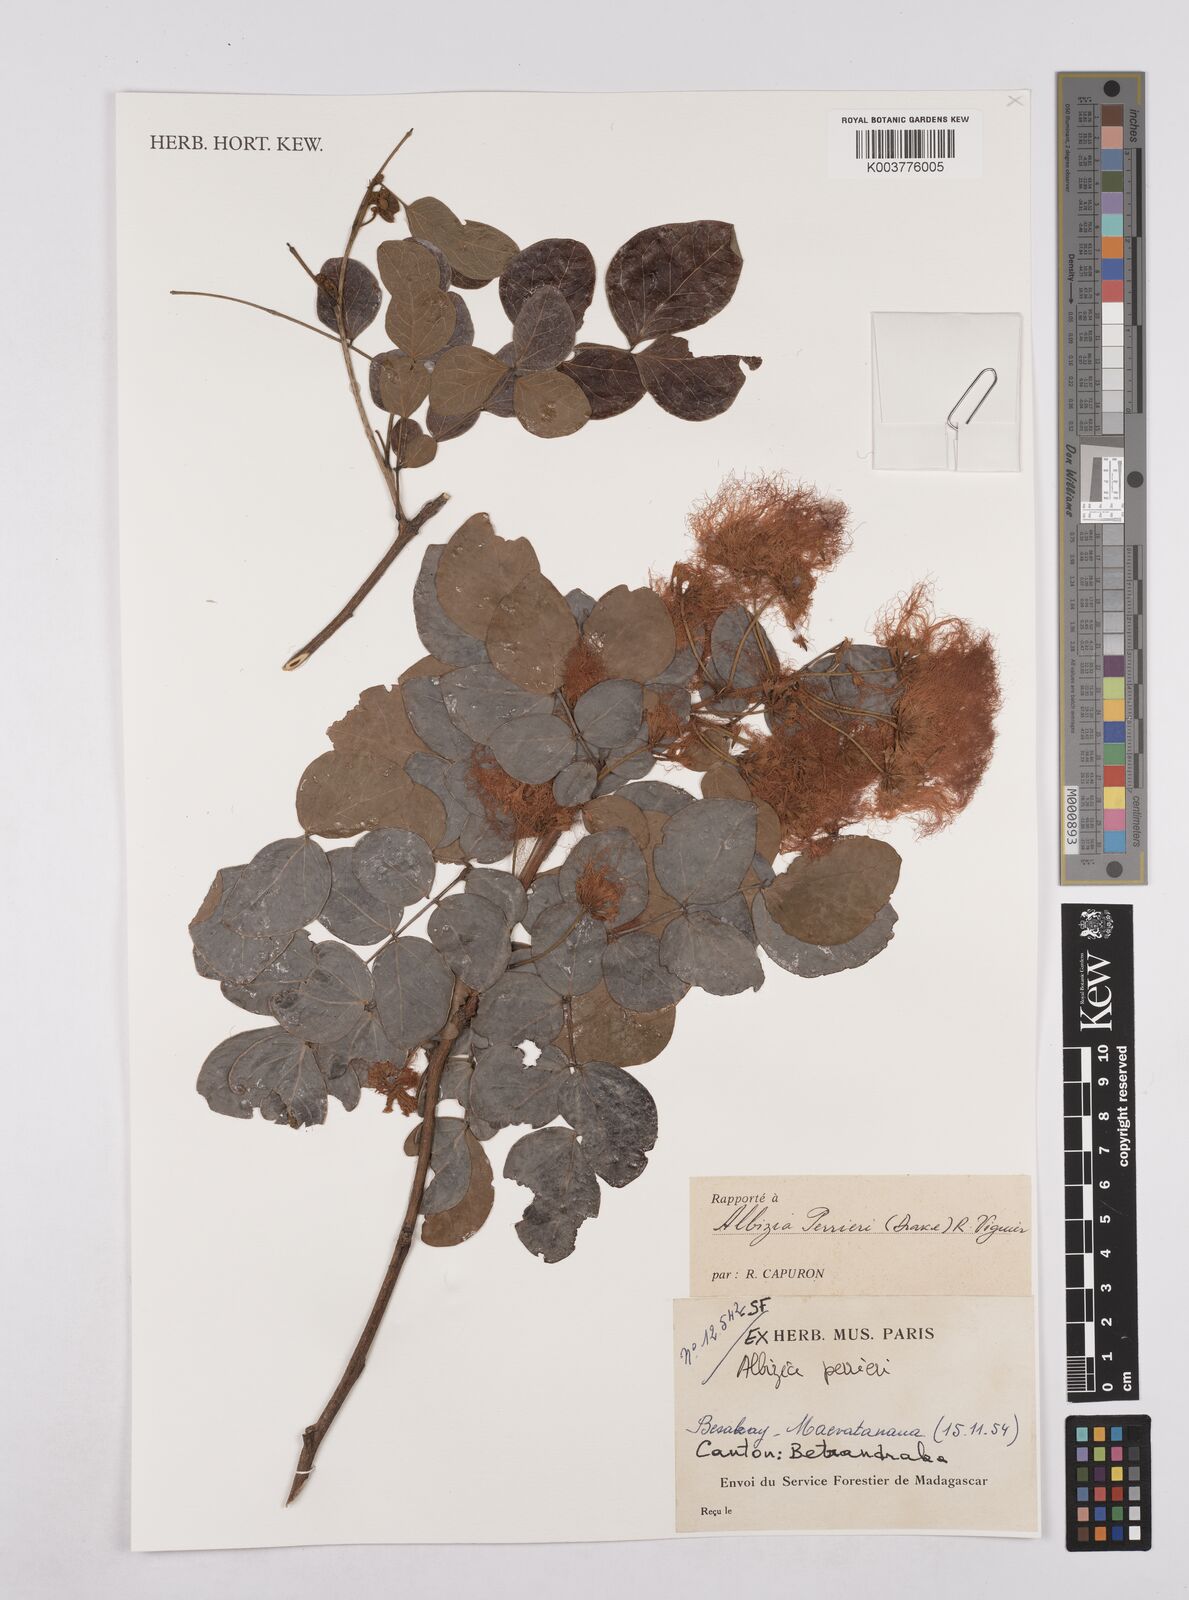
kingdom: Plantae
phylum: Tracheophyta
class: Magnoliopsida
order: Fabales
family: Fabaceae
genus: Albizia
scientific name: Albizia perrieri
